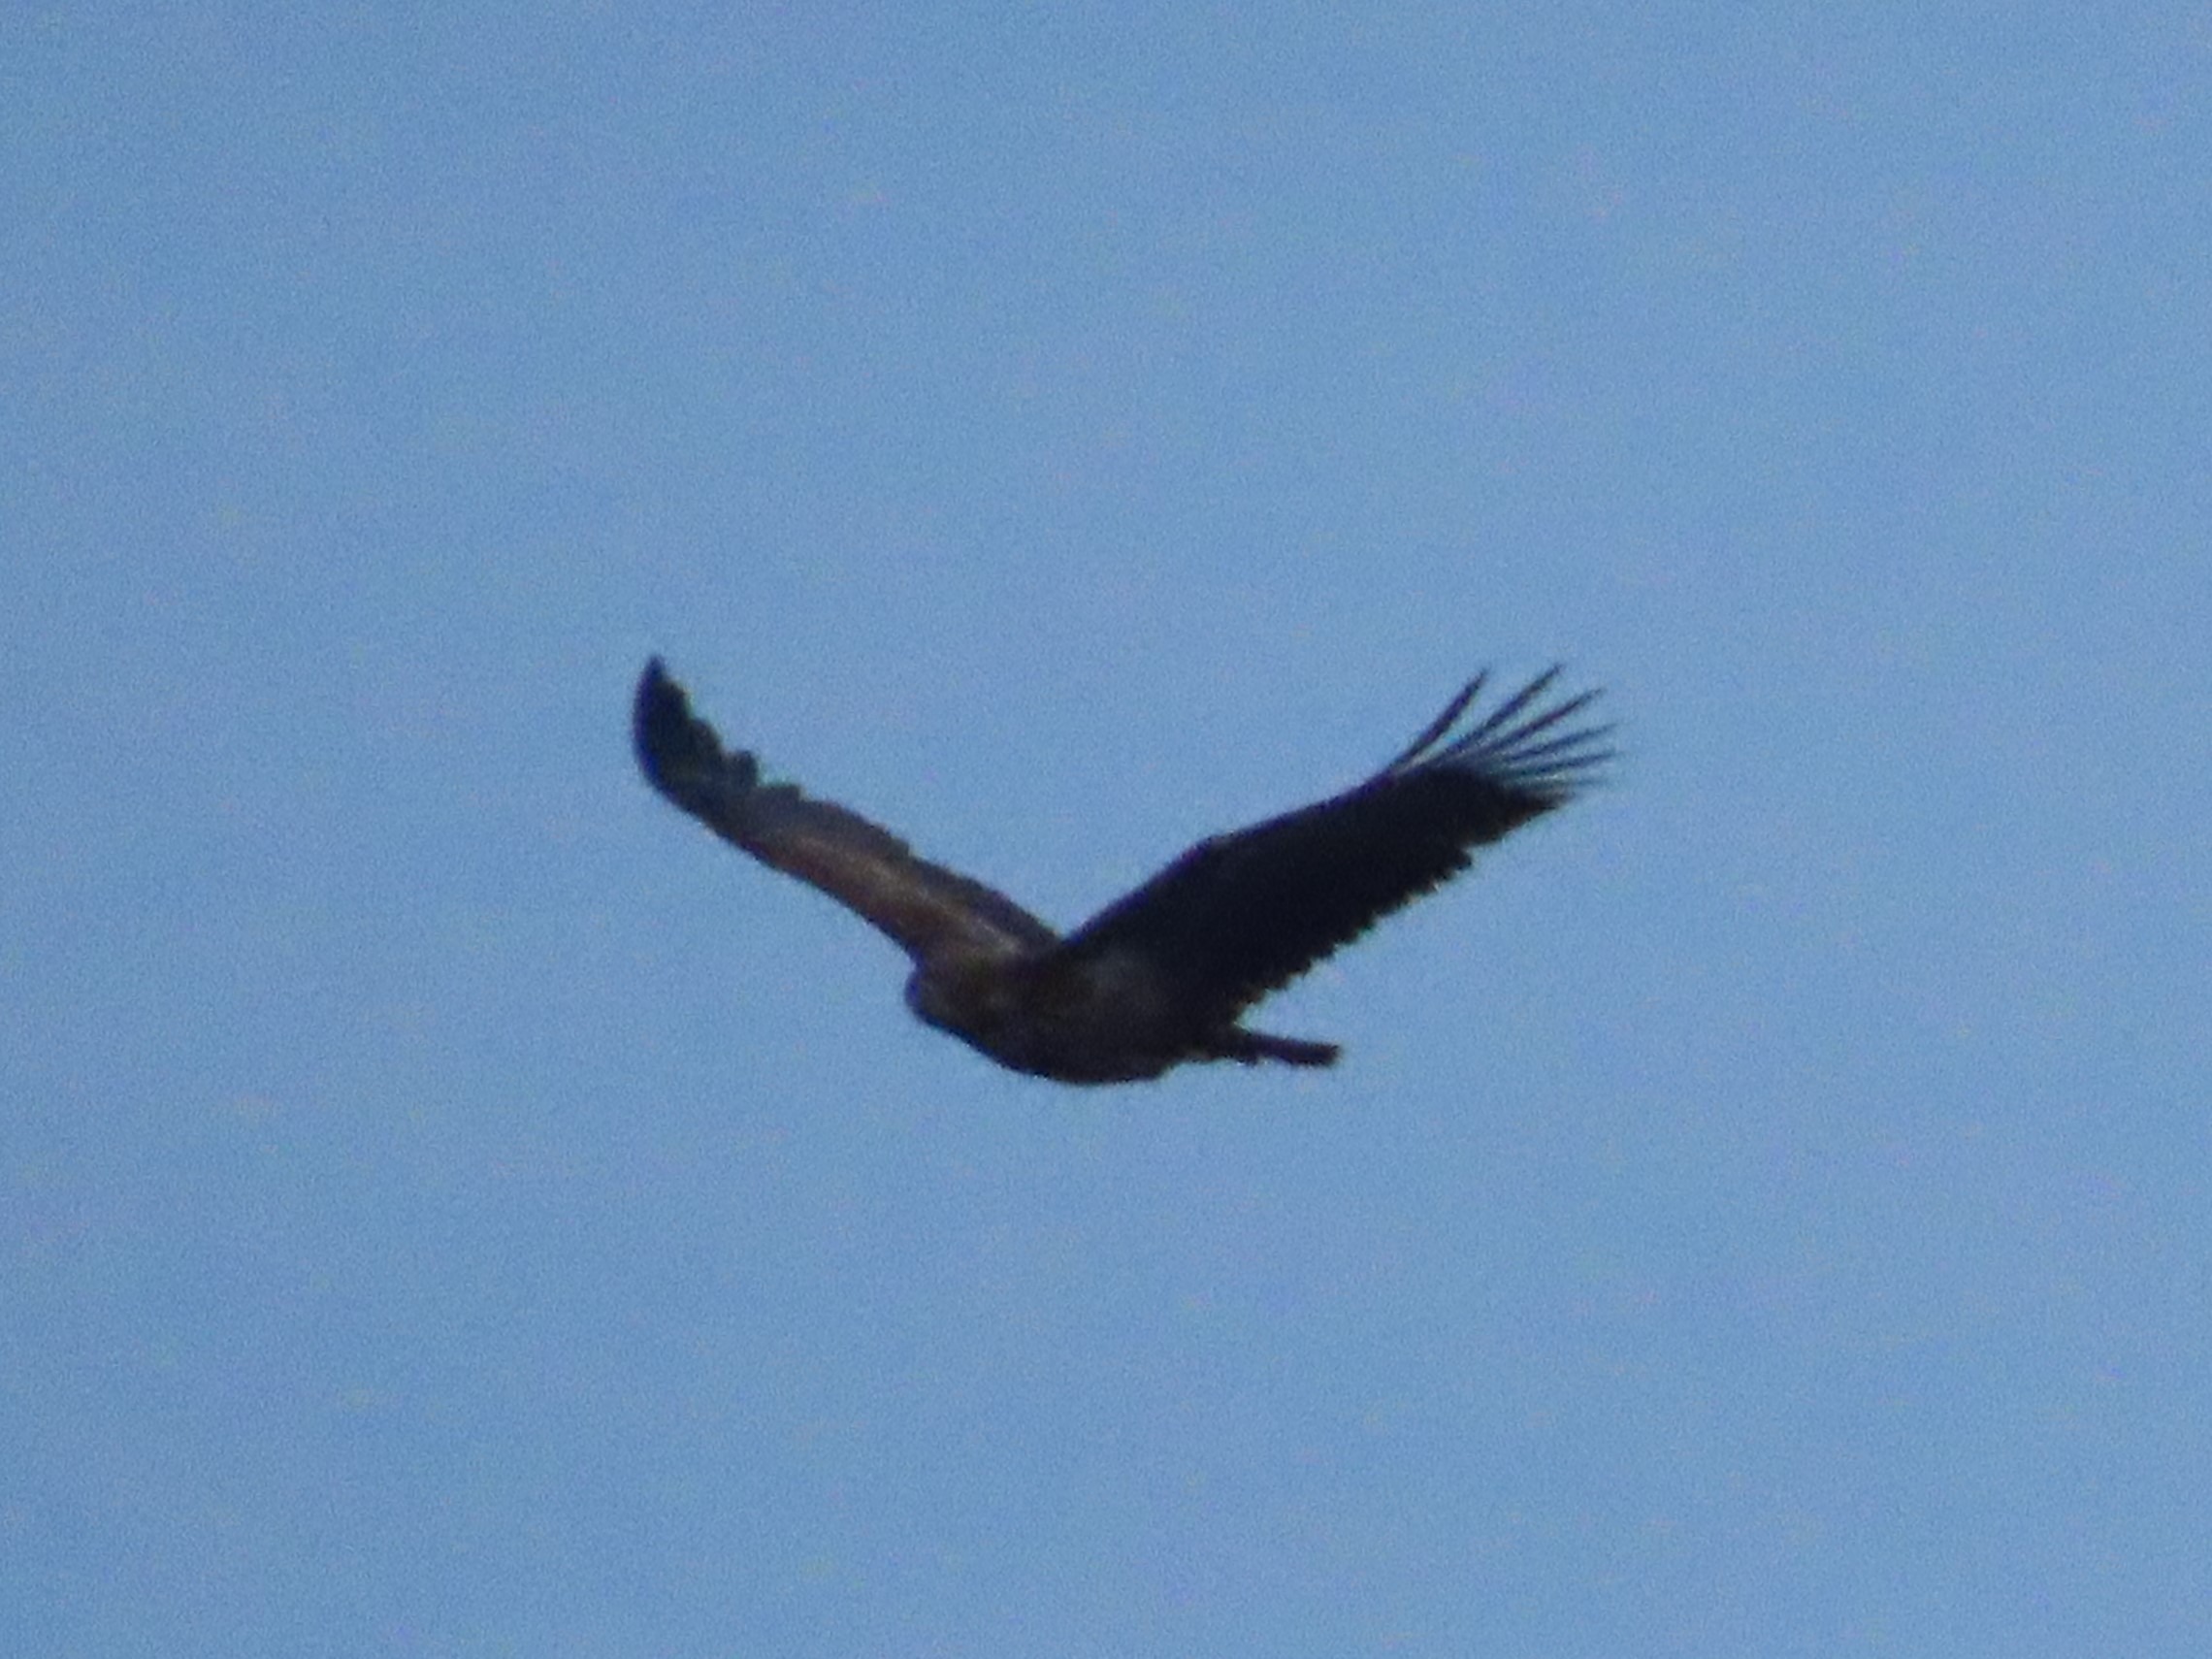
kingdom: Animalia
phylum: Chordata
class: Aves
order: Accipitriformes
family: Accipitridae
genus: Haliaeetus
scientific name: Haliaeetus albicilla
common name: Havørn
